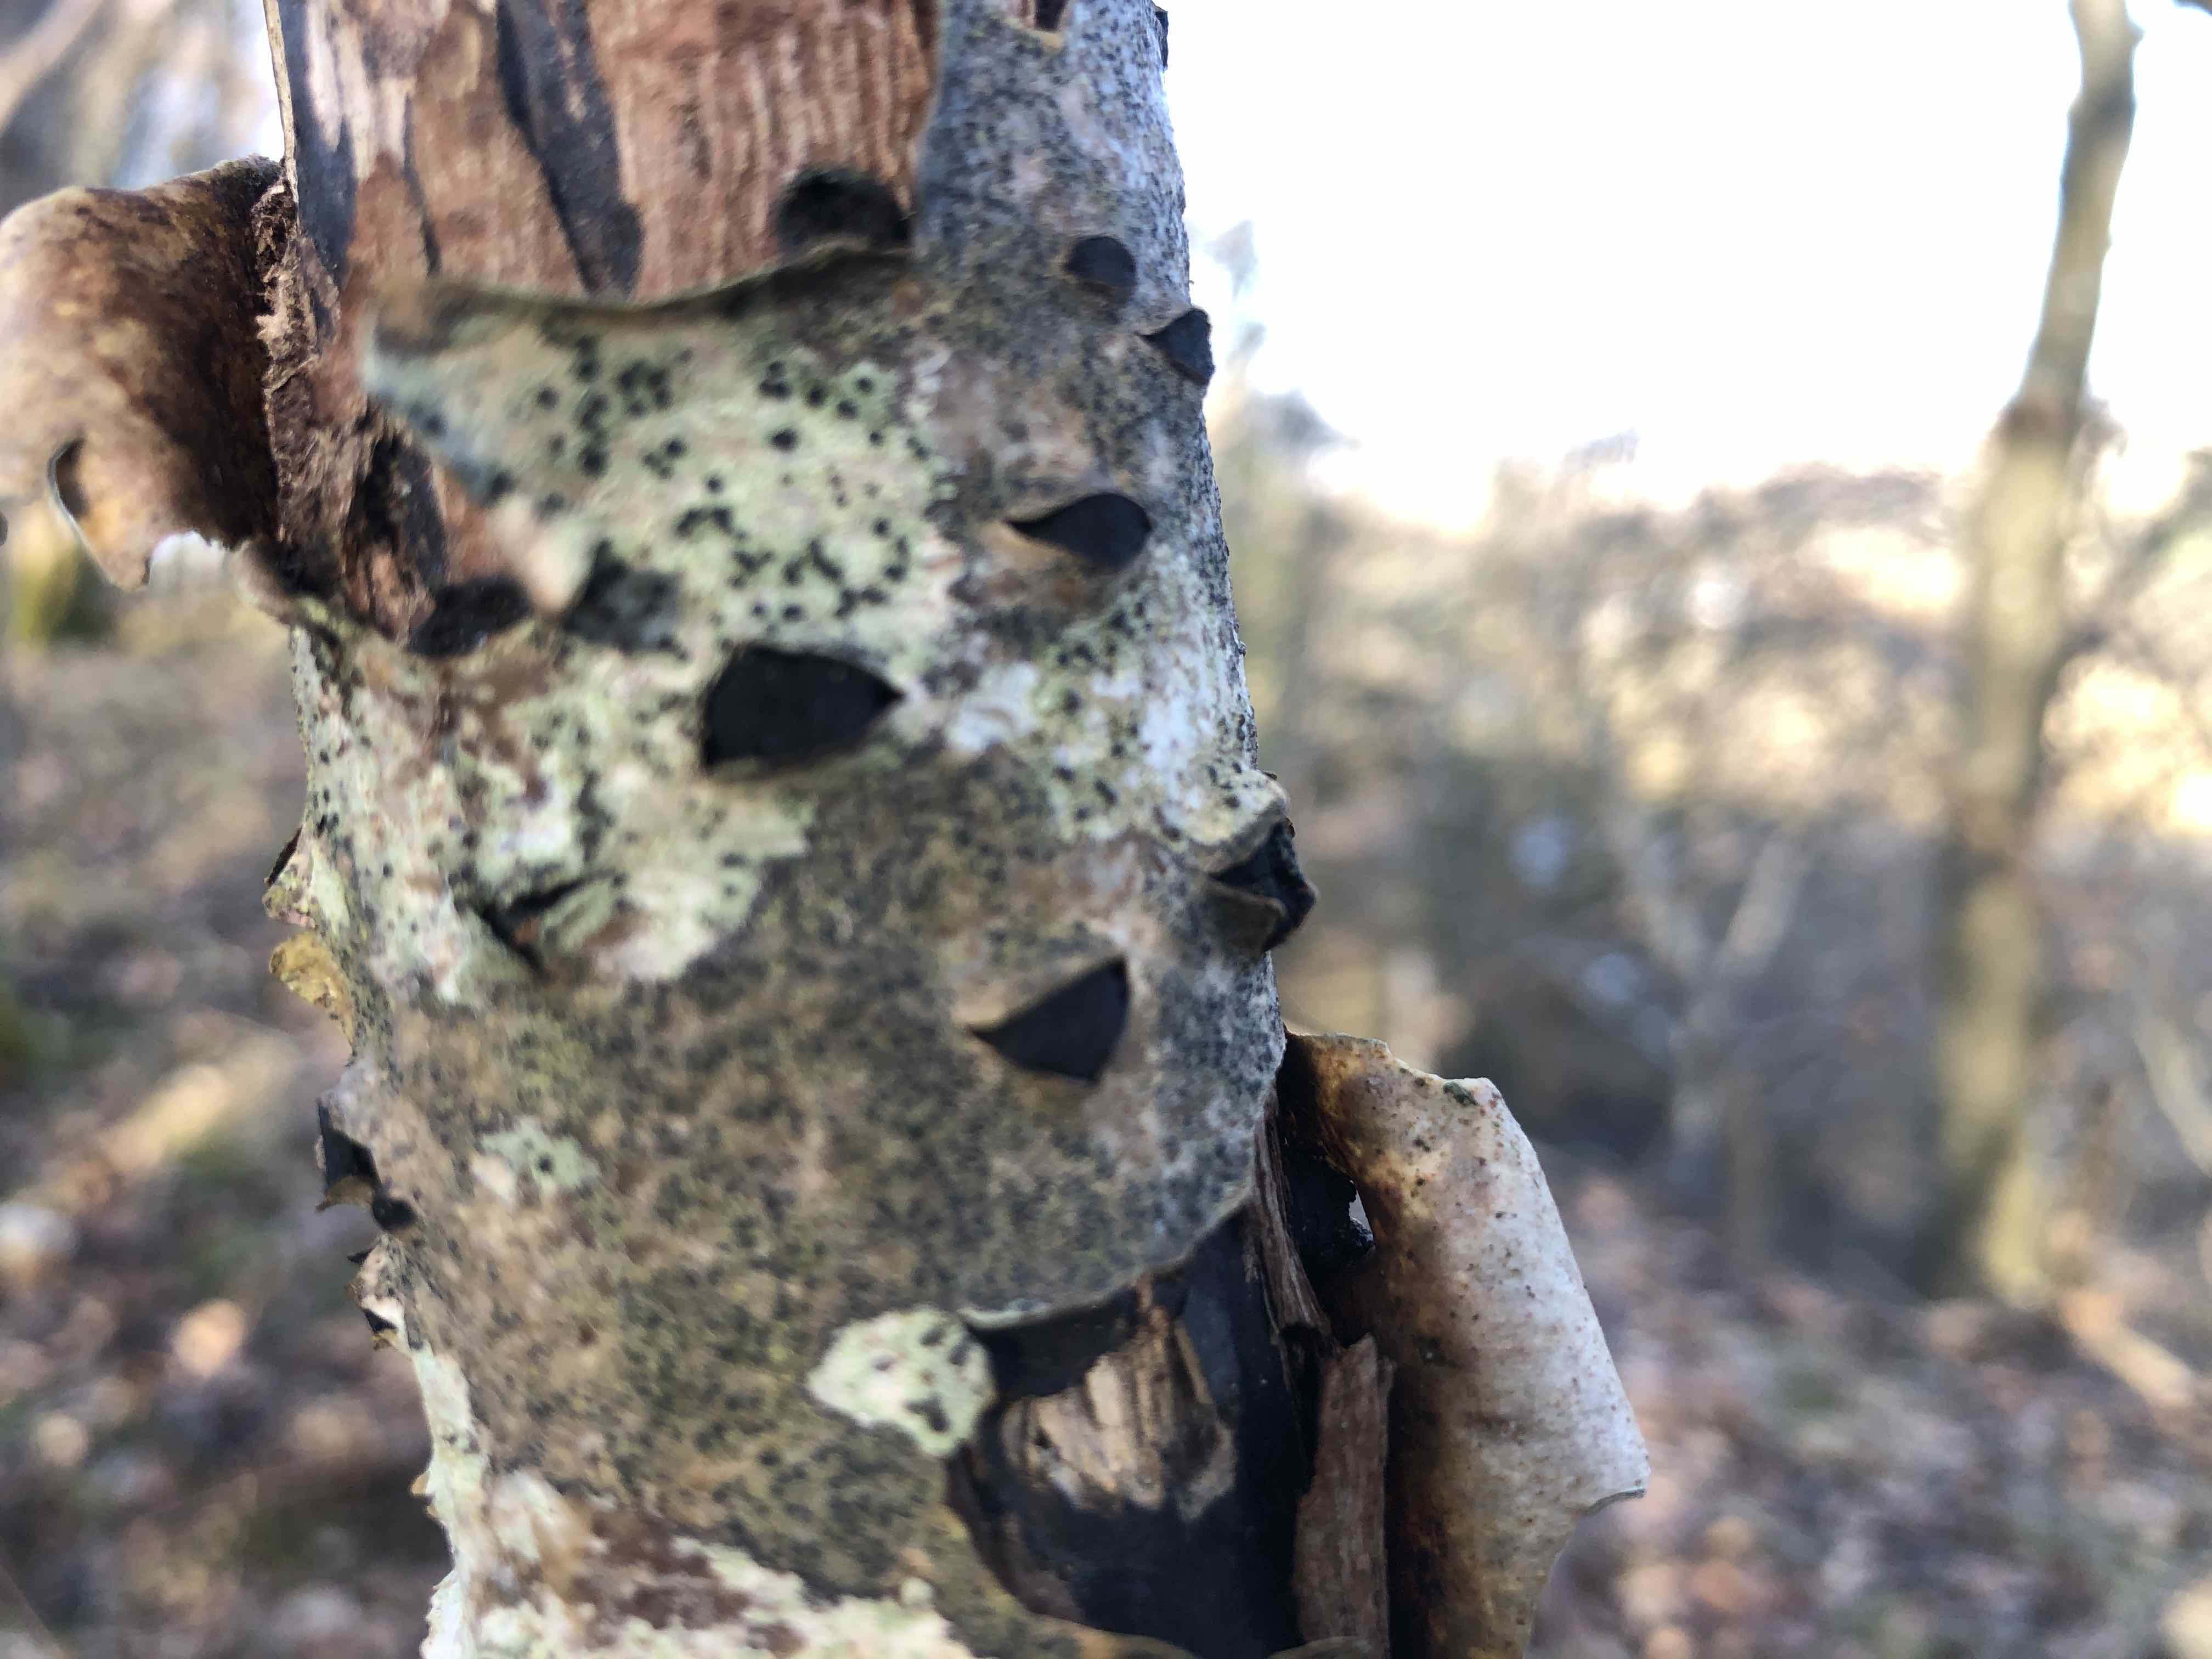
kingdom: Fungi
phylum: Ascomycota
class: Sordariomycetes
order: Xylariales
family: Diatrypaceae
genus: Eutypella
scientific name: Eutypella sorbi
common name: rønne-kulskorpe
